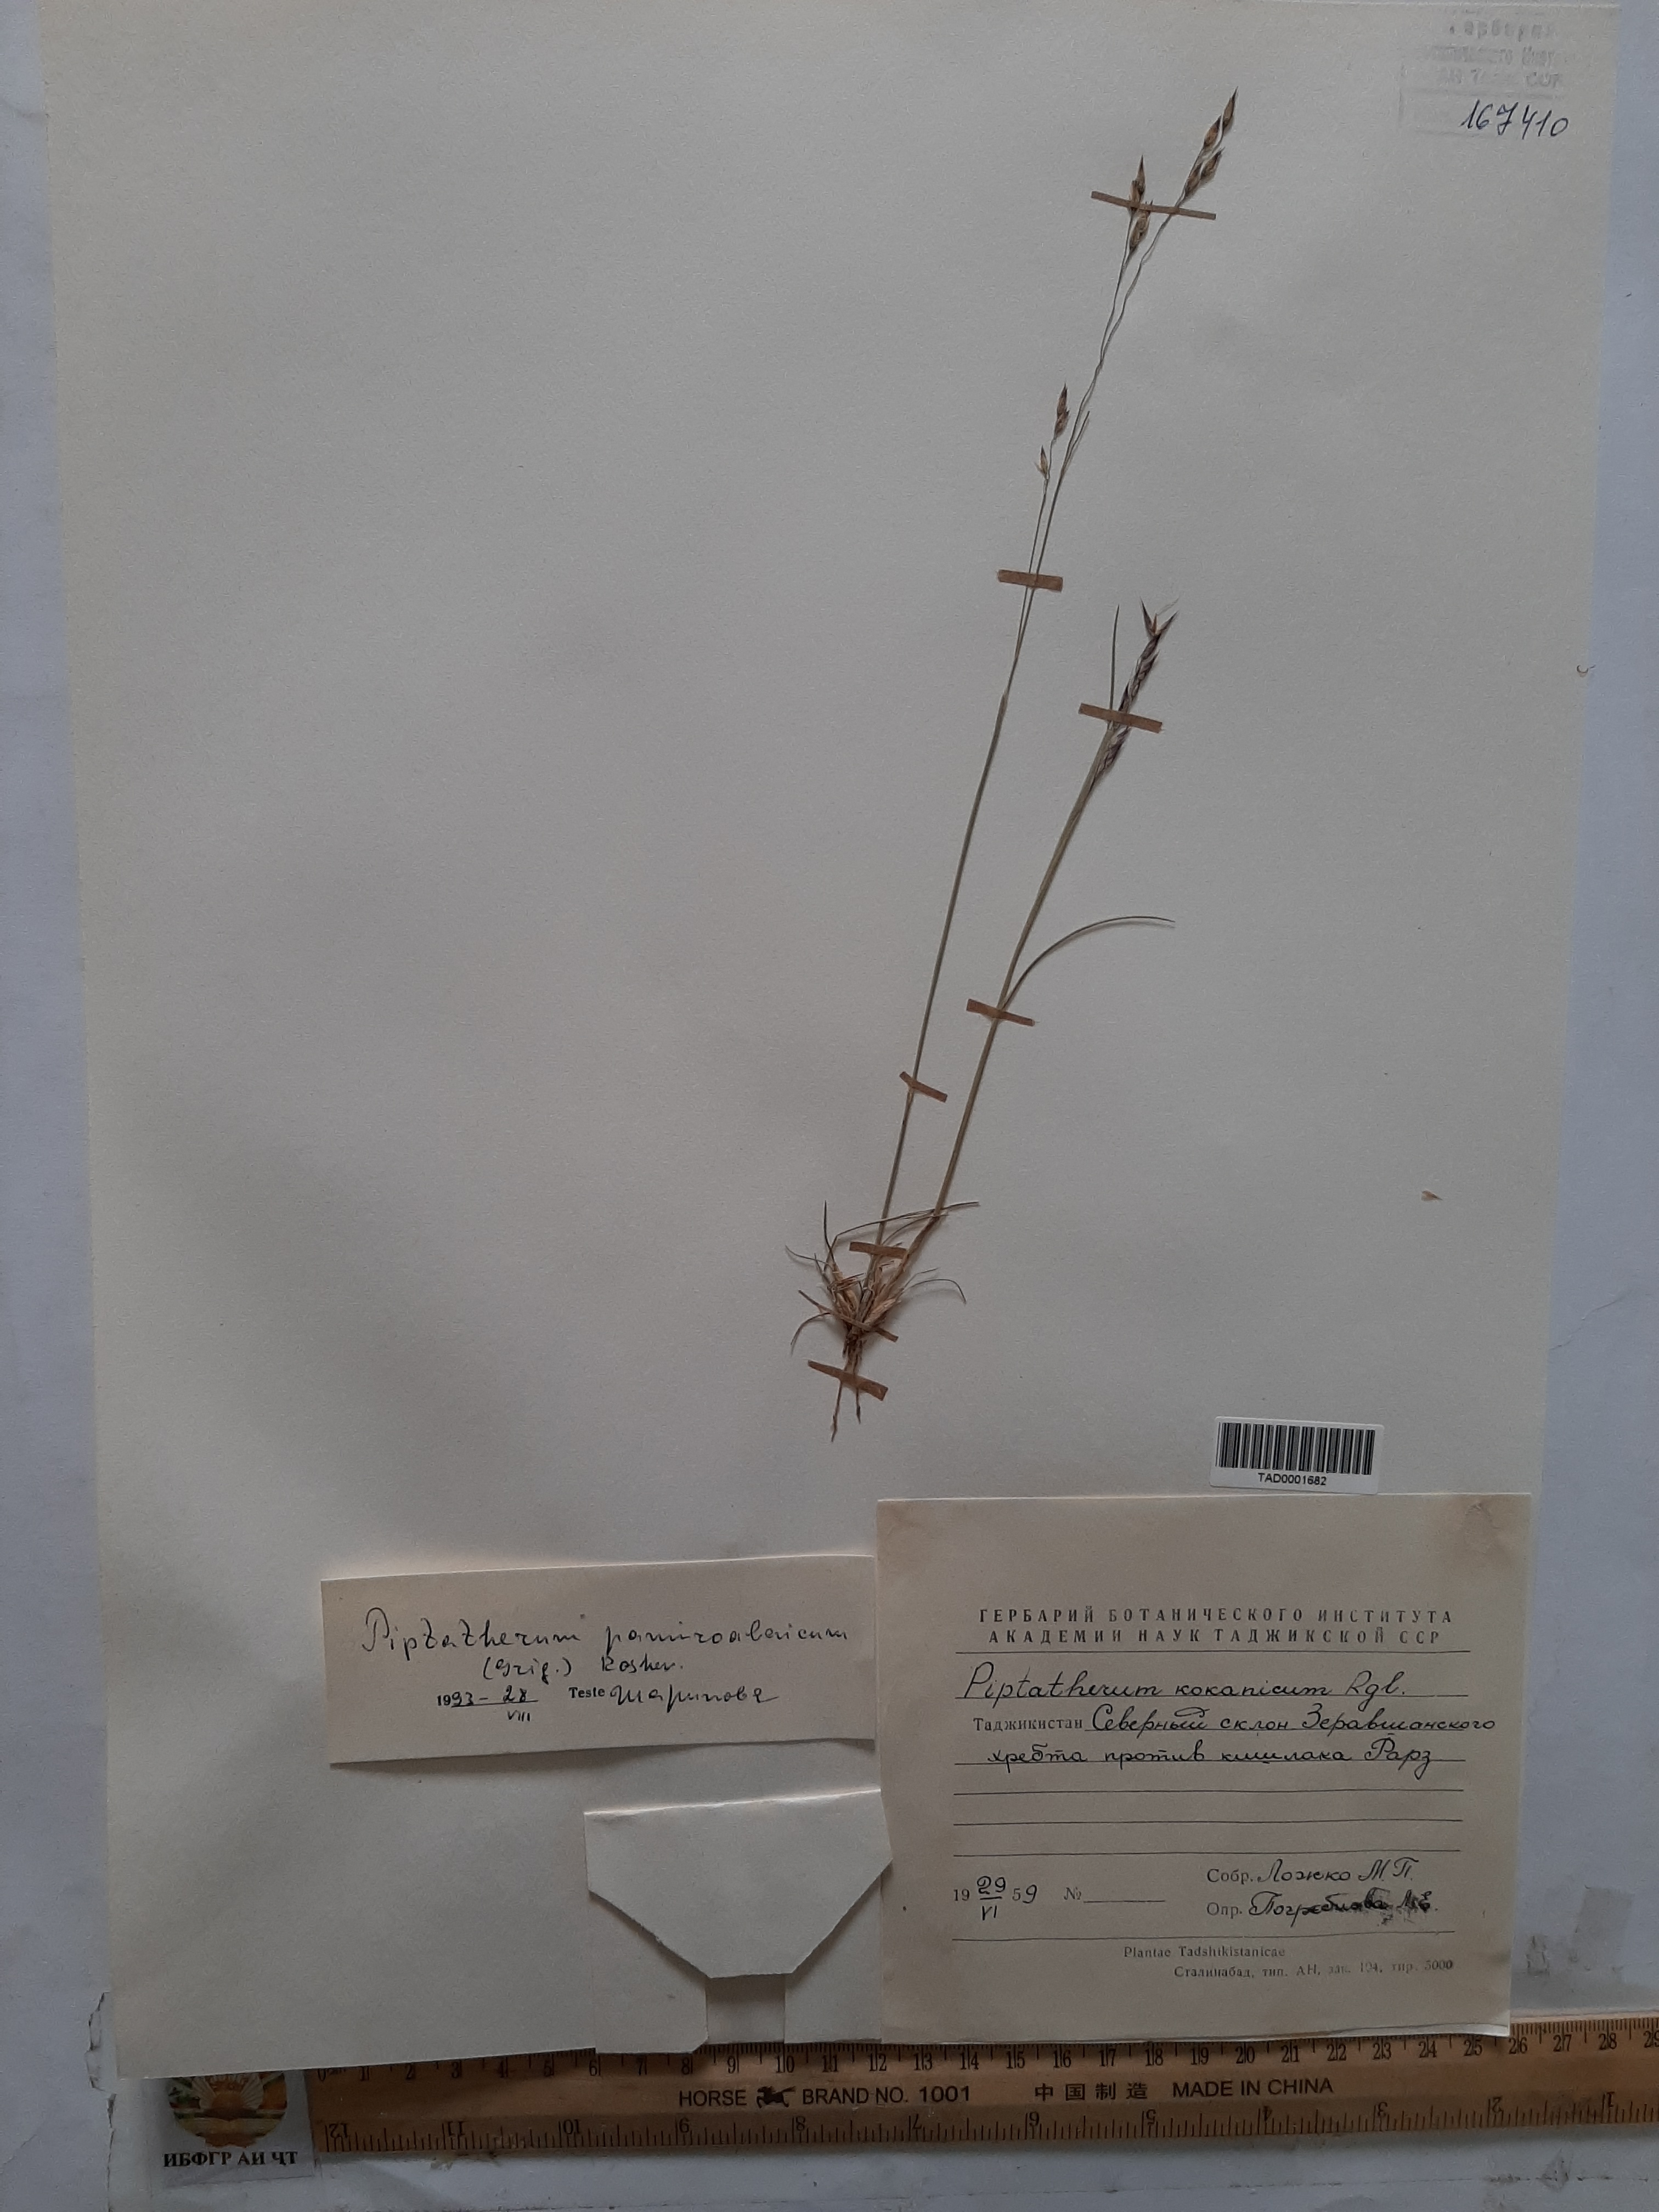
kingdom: Plantae
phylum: Tracheophyta
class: Liliopsida
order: Poales
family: Poaceae
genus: Piptatherum
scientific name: Piptatherum pamiralaicum
